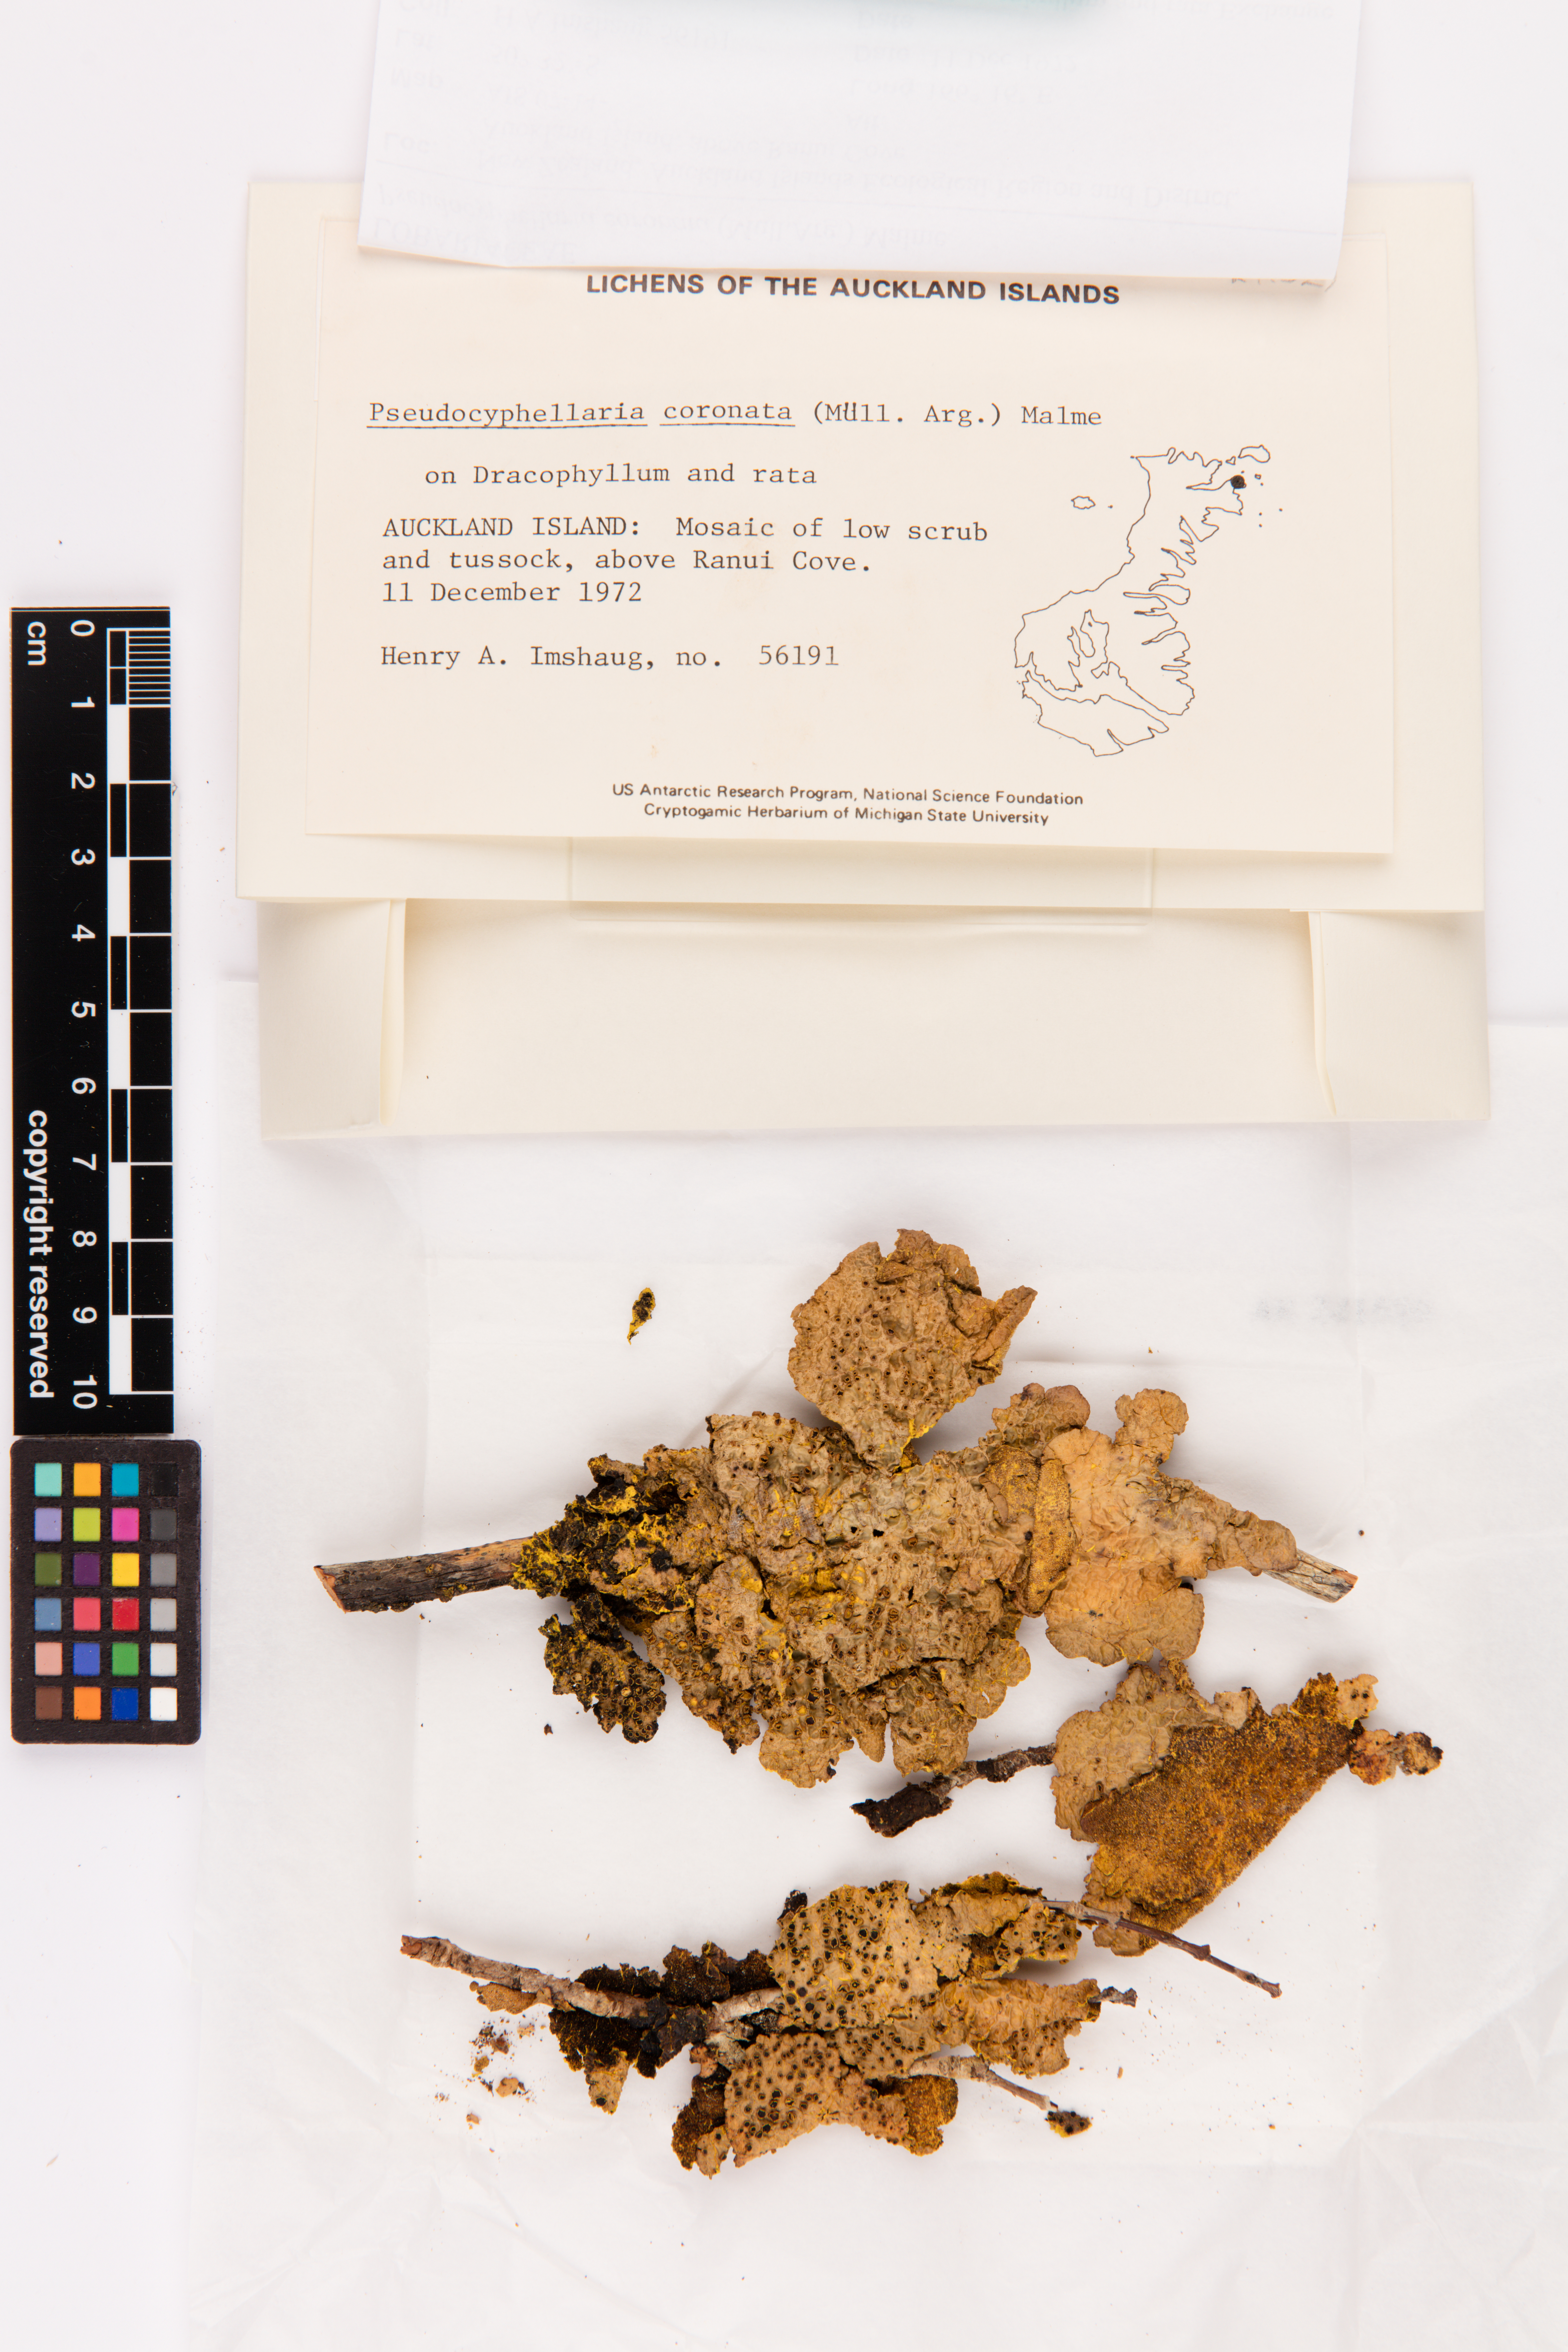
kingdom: Fungi
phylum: Ascomycota
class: Lecanoromycetes
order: Peltigerales
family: Lobariaceae
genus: Yarrumia
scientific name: Yarrumia coronata
